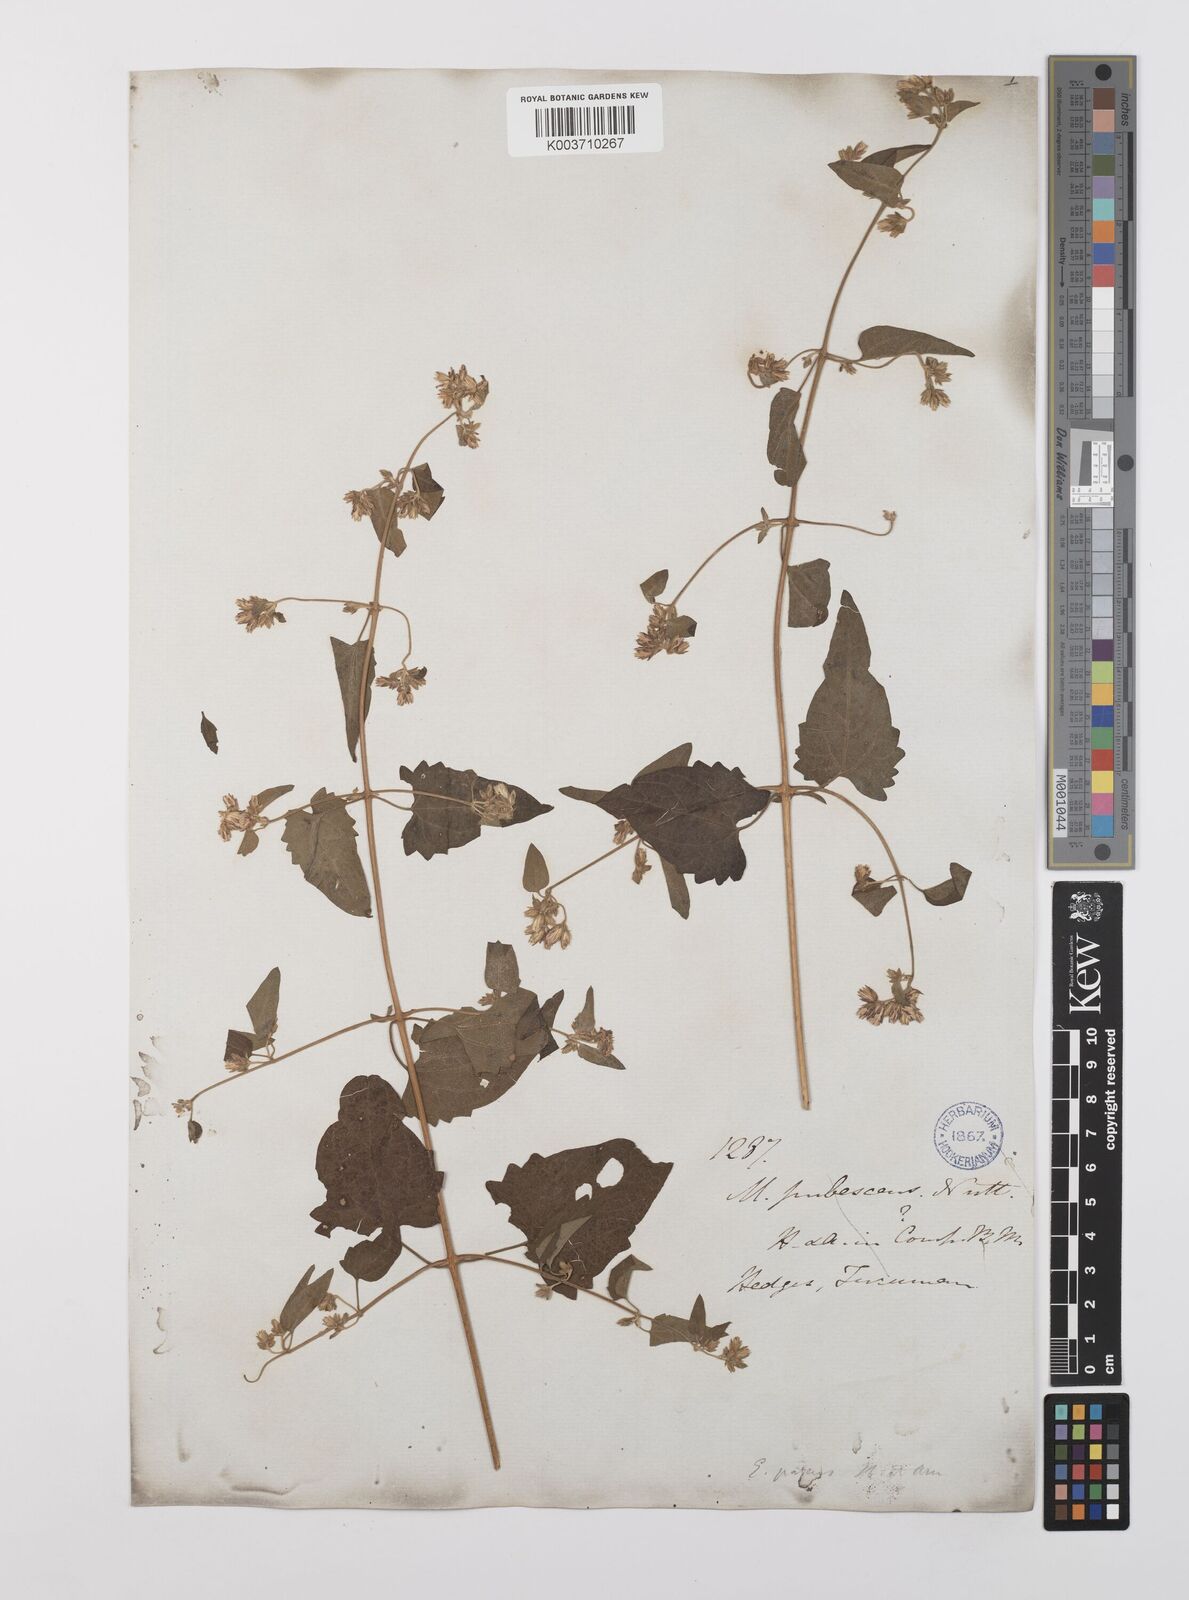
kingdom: Plantae
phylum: Tracheophyta
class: Magnoliopsida
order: Asterales
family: Asteraceae
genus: Austrobrickellia
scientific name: Austrobrickellia patens
